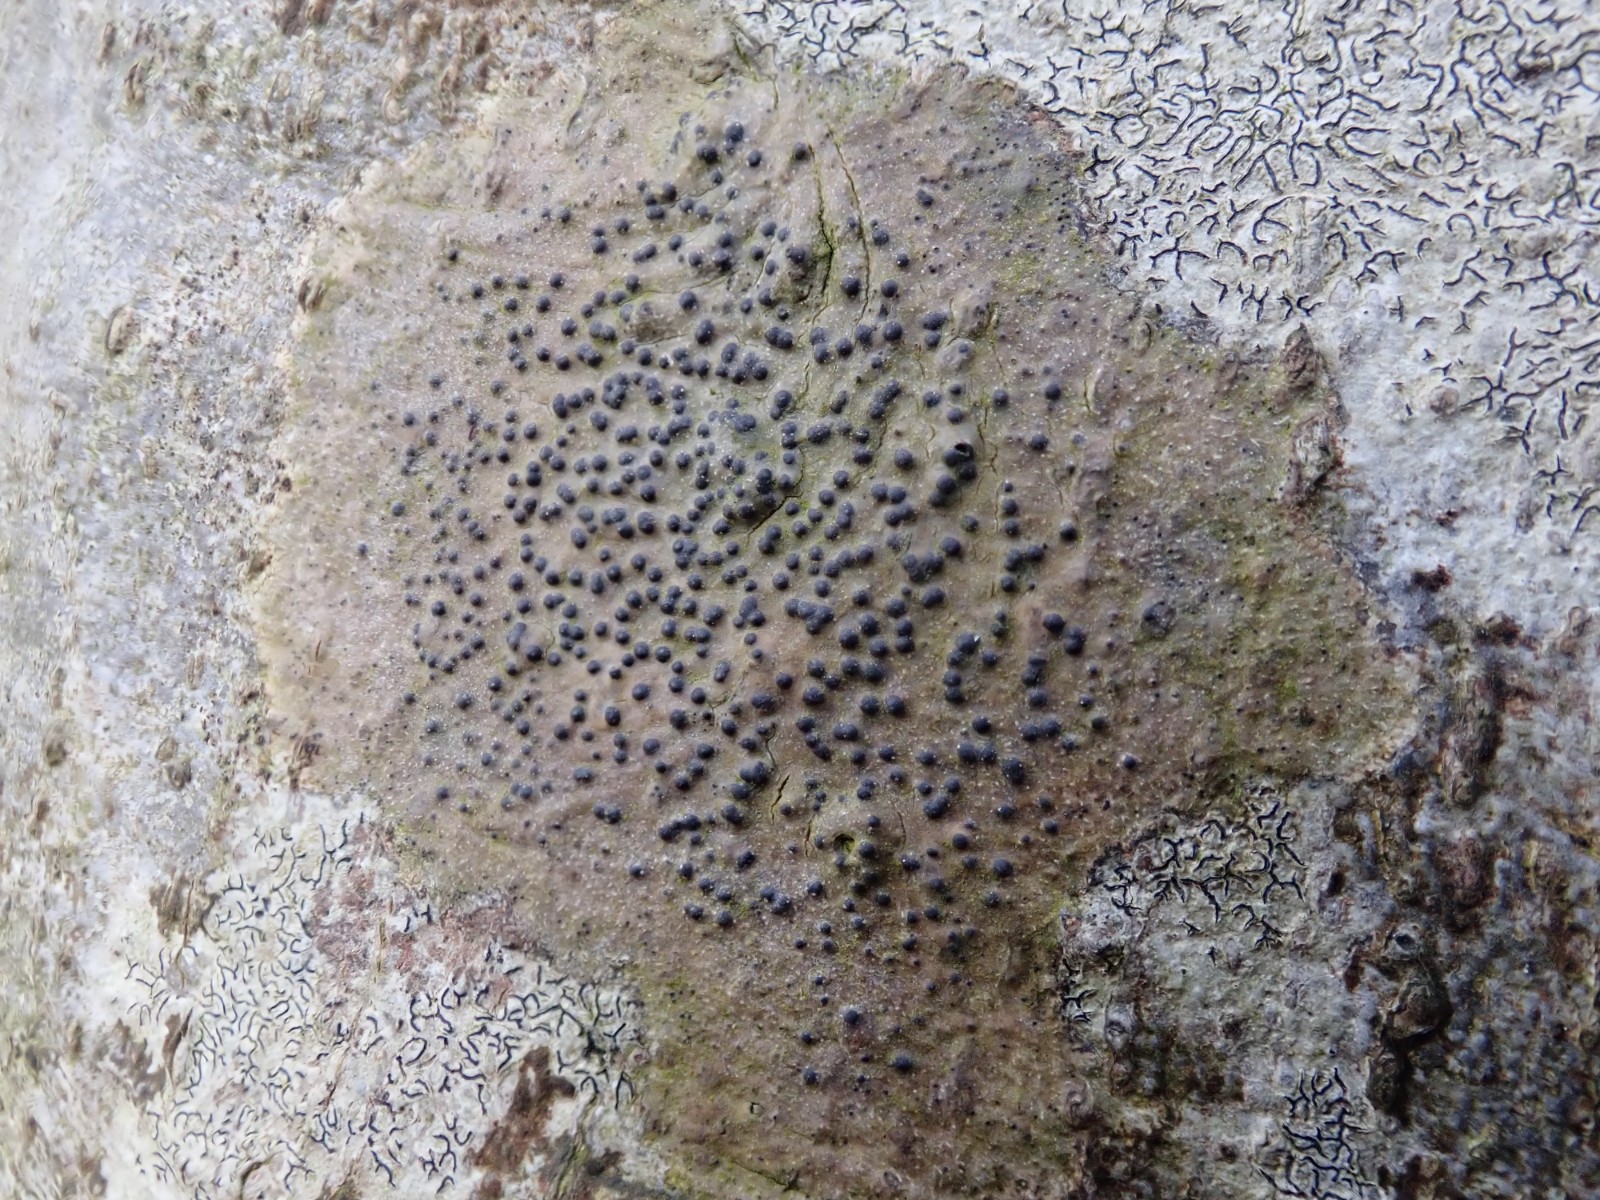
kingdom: Fungi
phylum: Ascomycota
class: Eurotiomycetes
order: Pyrenulales
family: Pyrenulaceae
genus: Pyrenula
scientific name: Pyrenula nitida
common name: glinsende kernelav
